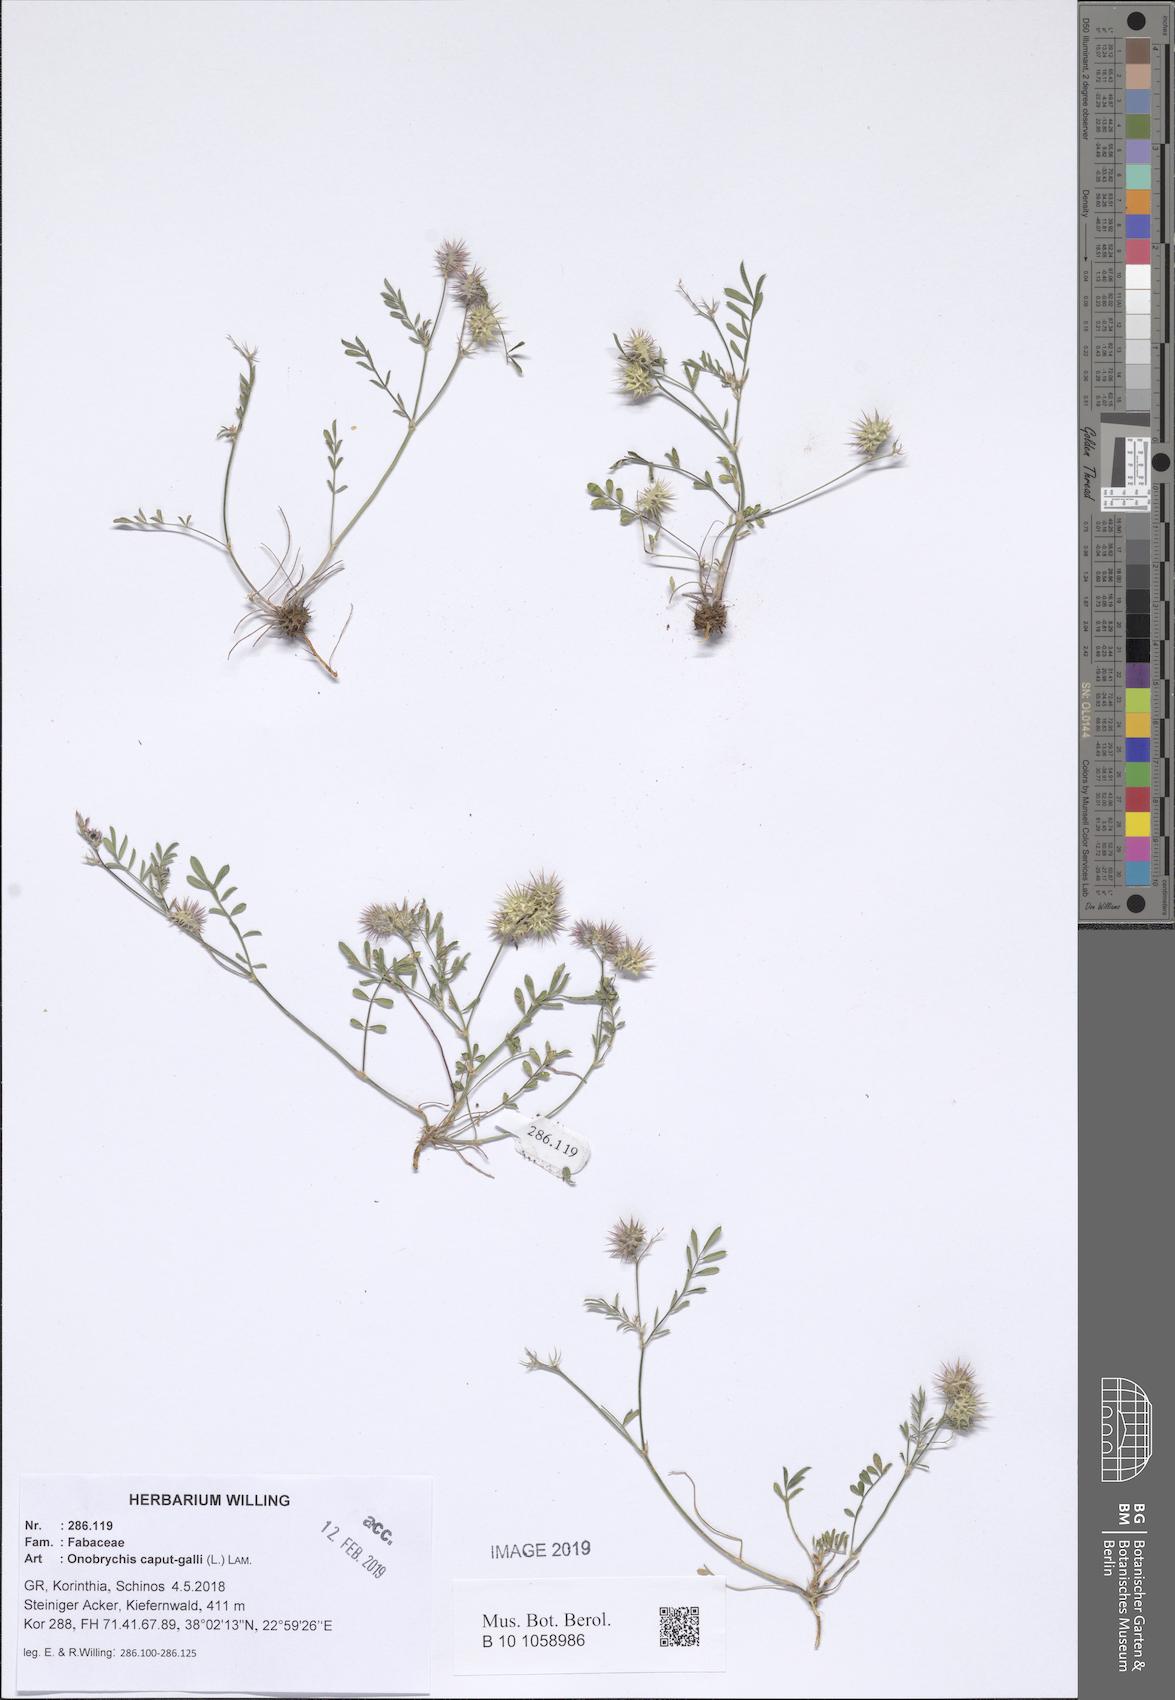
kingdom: Plantae
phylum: Tracheophyta
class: Magnoliopsida
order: Fabales
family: Fabaceae
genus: Onobrychis
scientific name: Onobrychis caput-galli
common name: Cockscomb sainfoin
